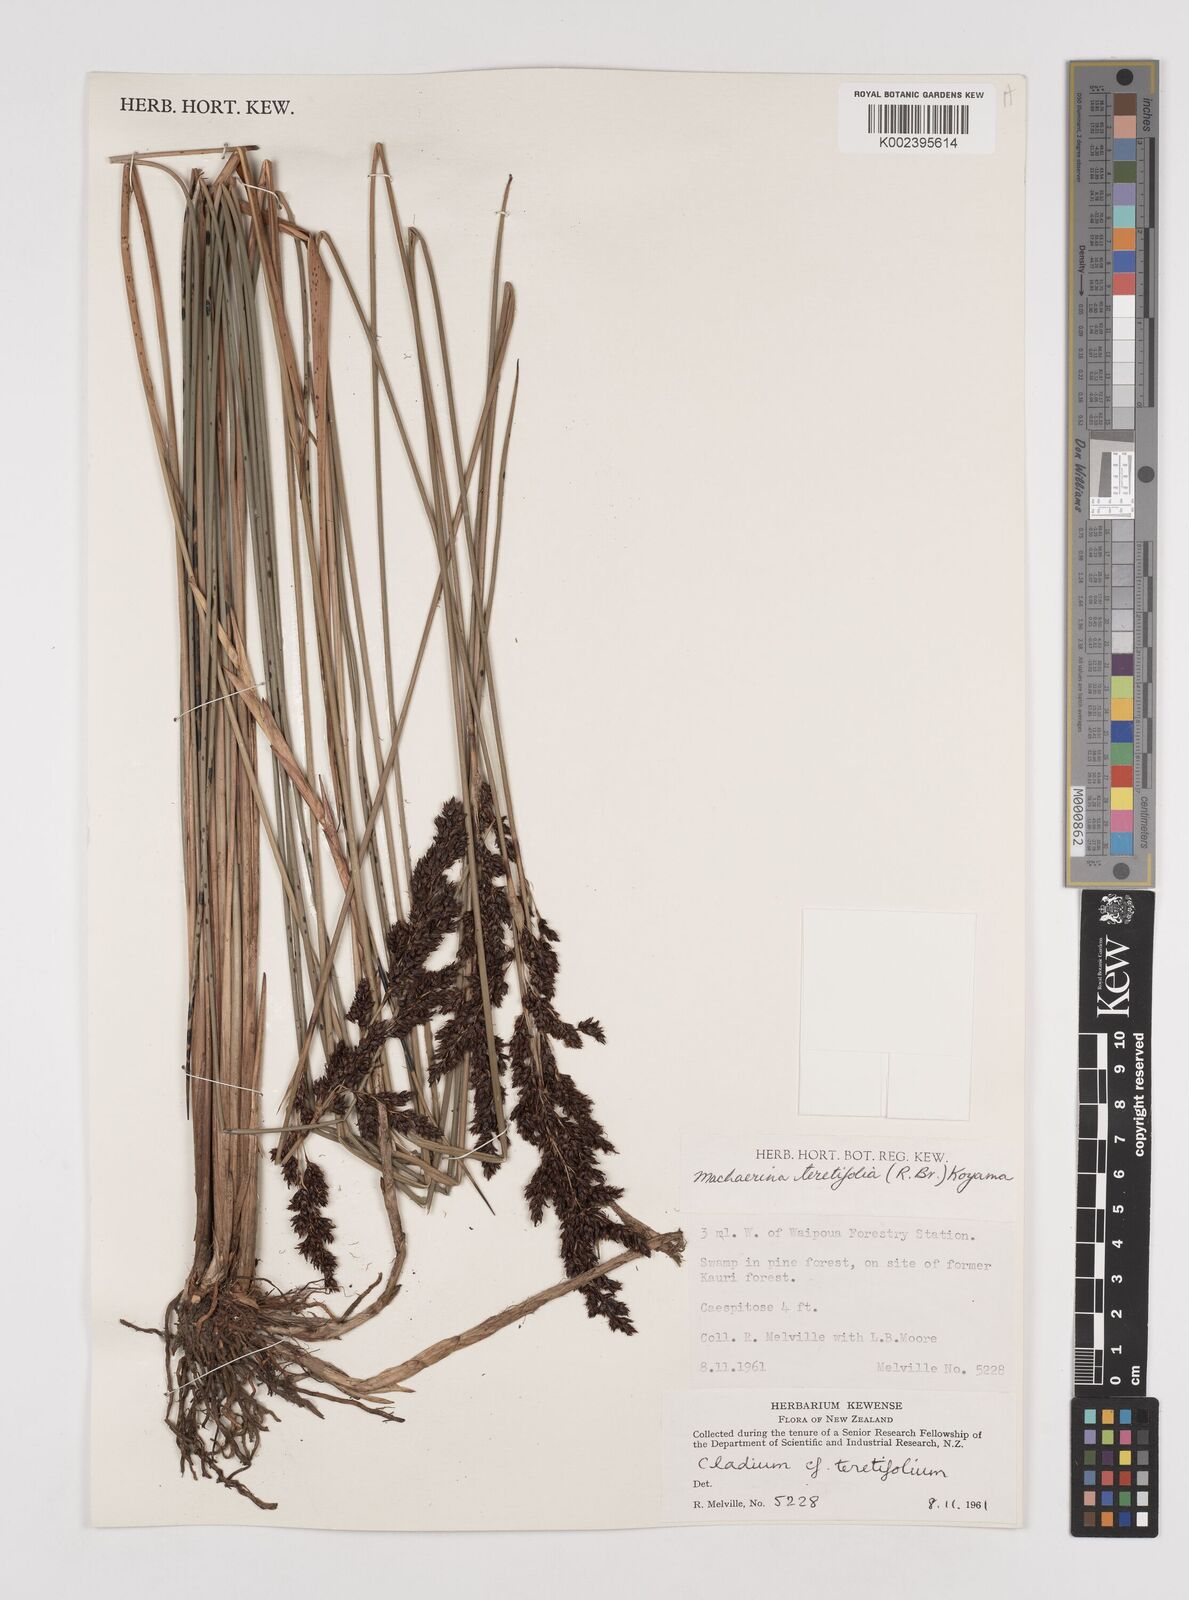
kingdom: Plantae
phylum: Tracheophyta
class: Liliopsida
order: Poales
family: Cyperaceae
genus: Machaerina
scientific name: Machaerina teretifolia
